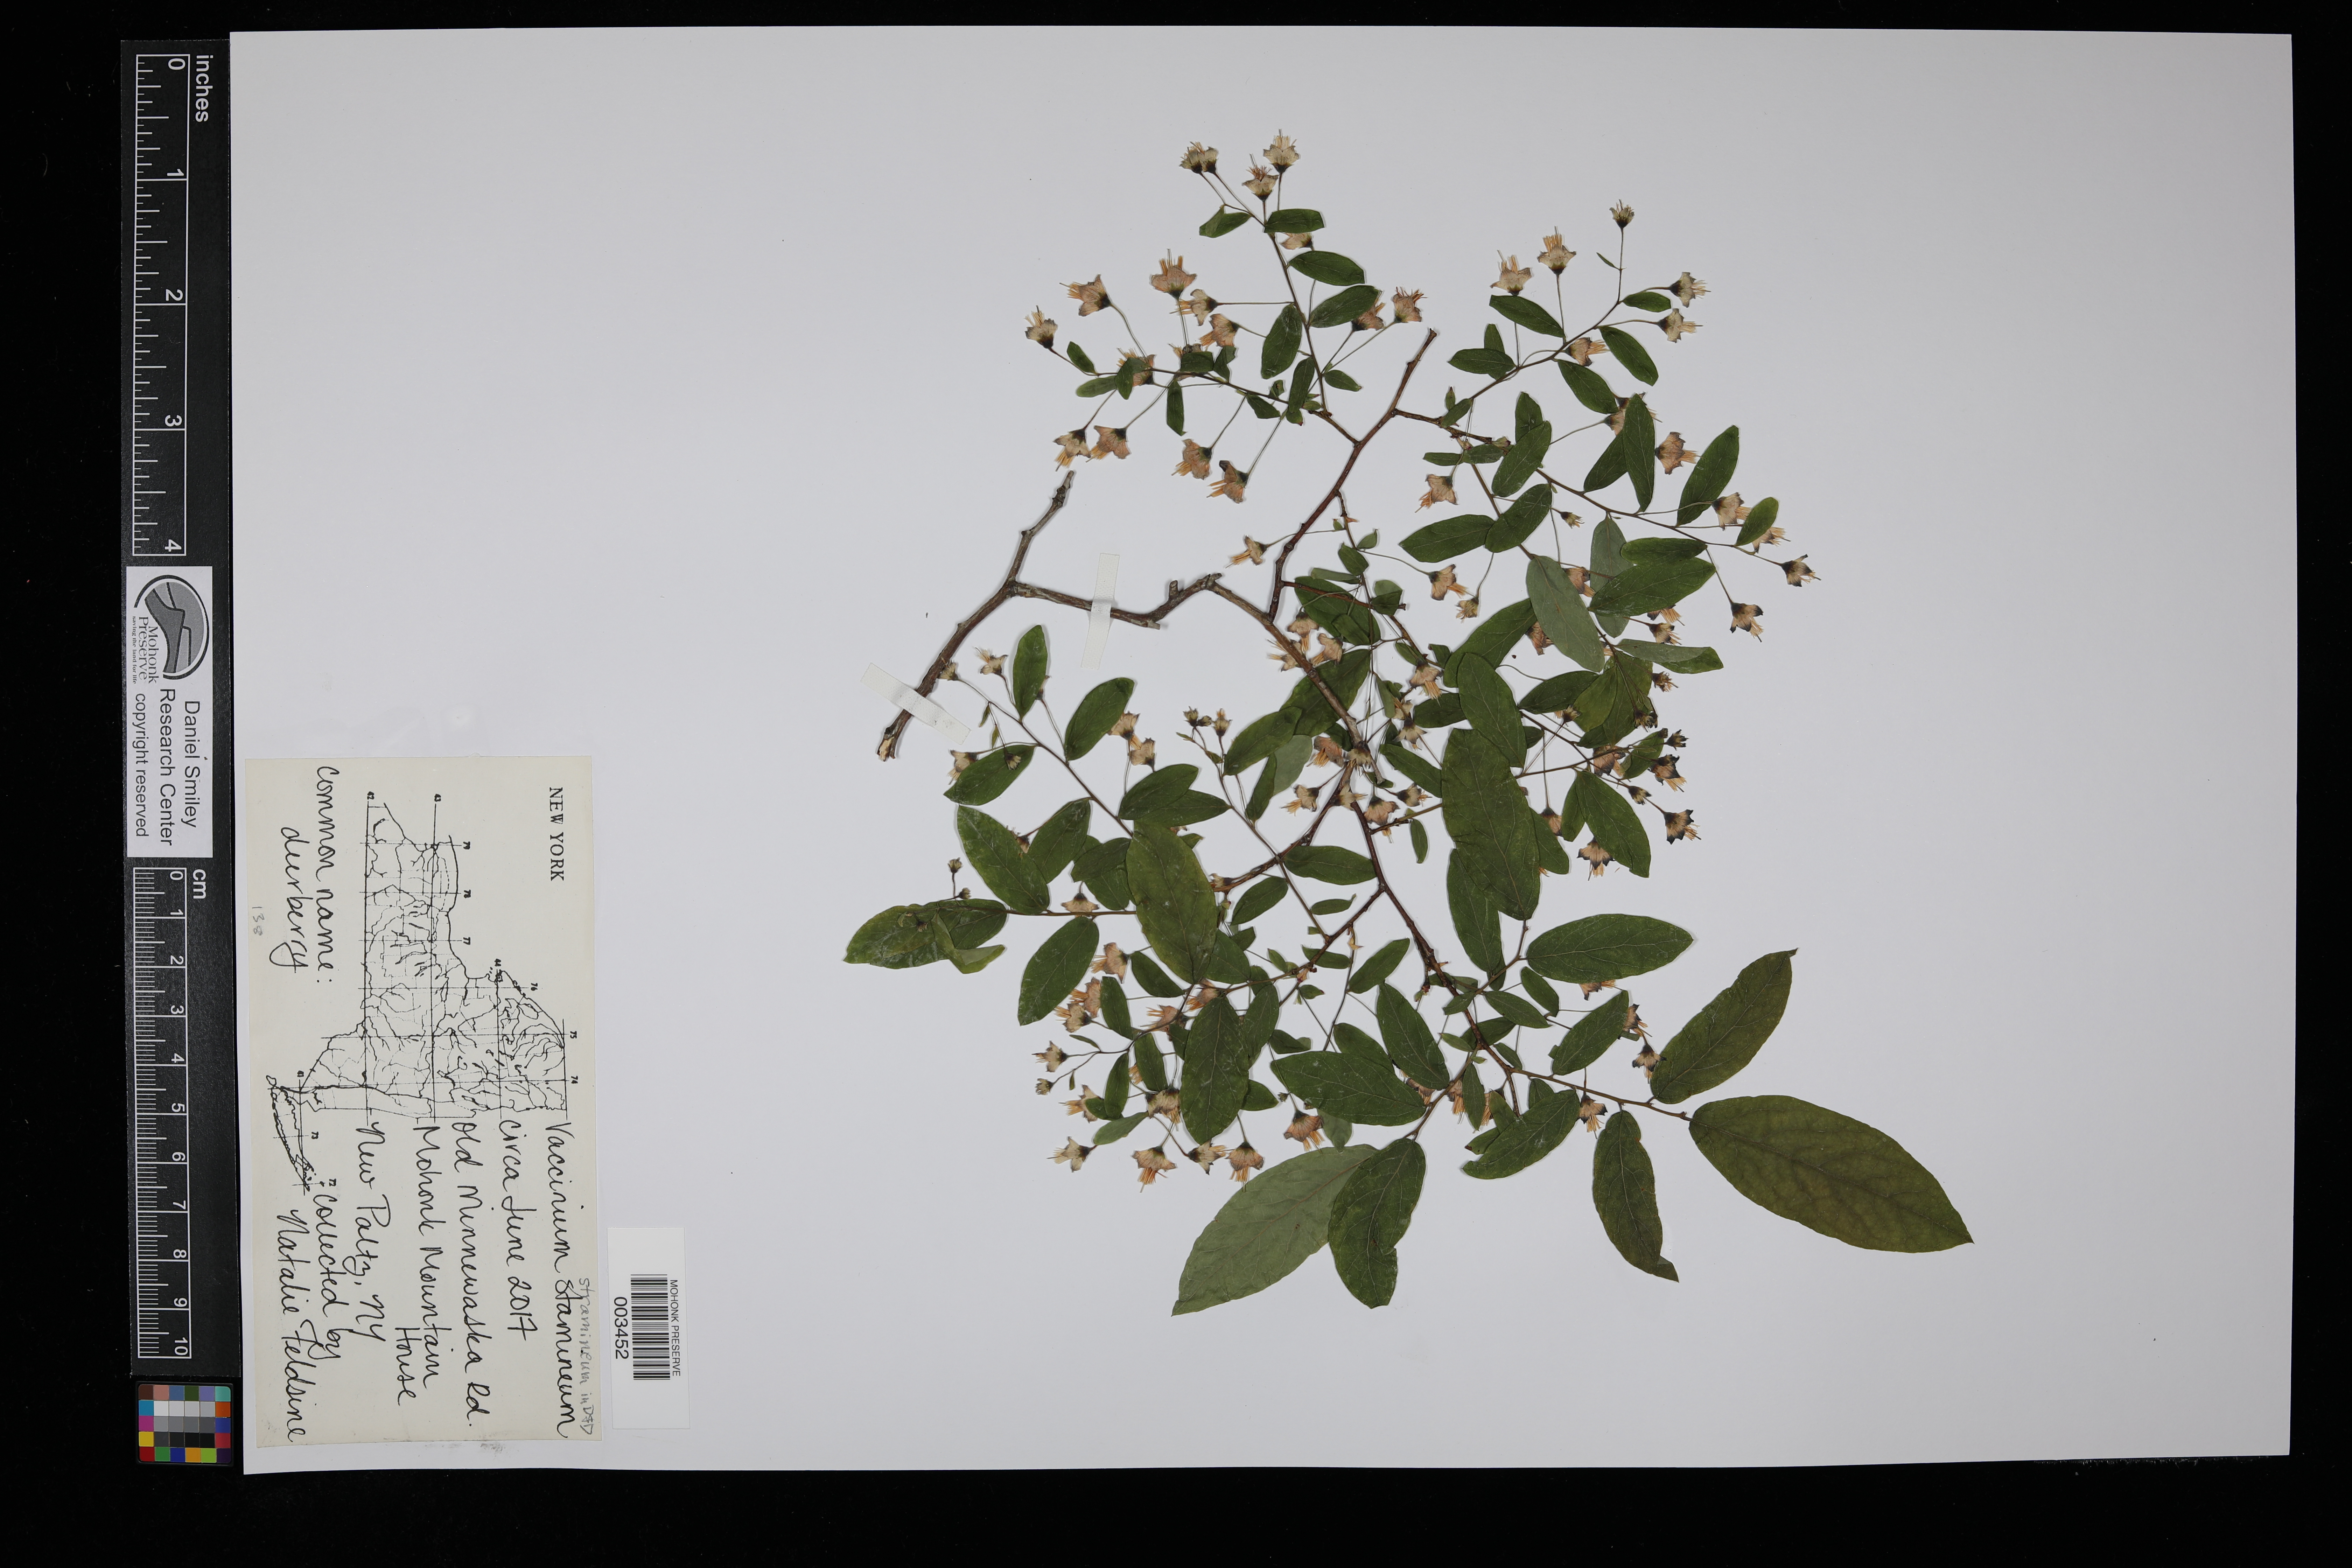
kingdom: Plantae
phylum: Tracheophyta
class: Magnoliopsida
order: Ericales
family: Ericaceae
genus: Vaccinium
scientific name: Vaccinium stamineum
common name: Deerberry
